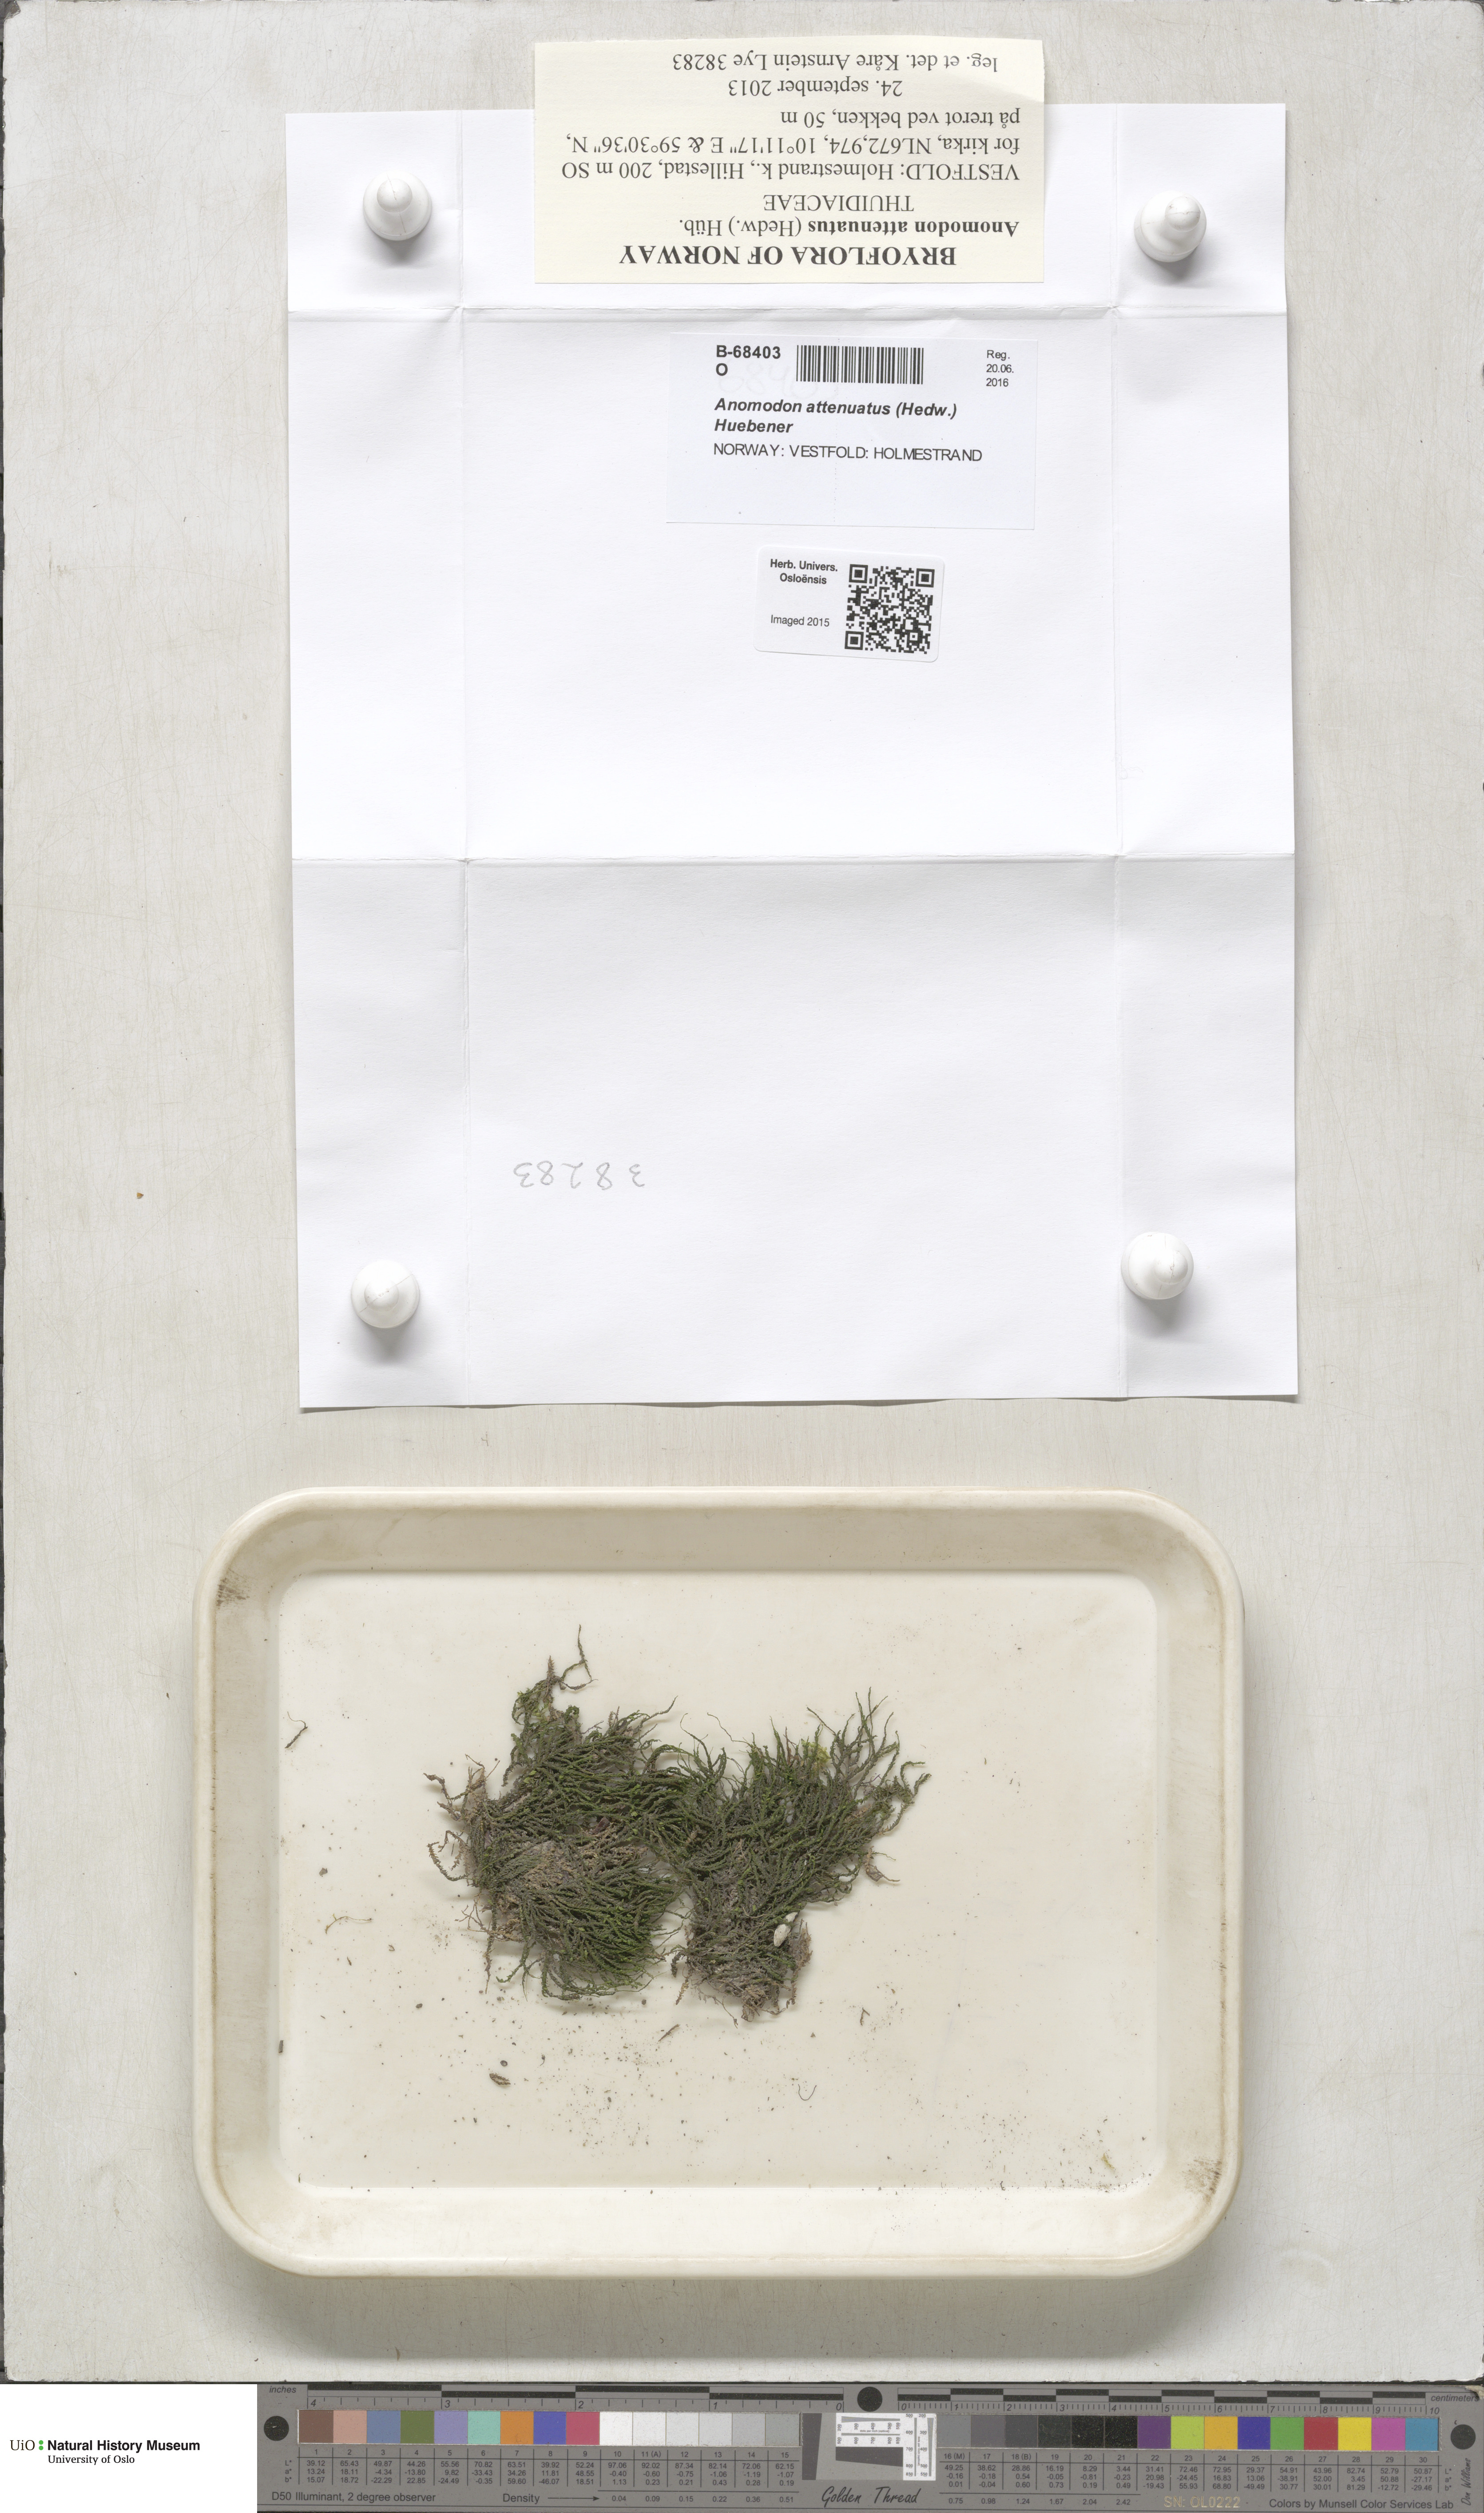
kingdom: Plantae
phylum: Bryophyta
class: Bryopsida
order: Hypnales
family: Neckeraceae
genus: Pseudanomodon
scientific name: Pseudanomodon attenuatus
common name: Tree-skirt moss
